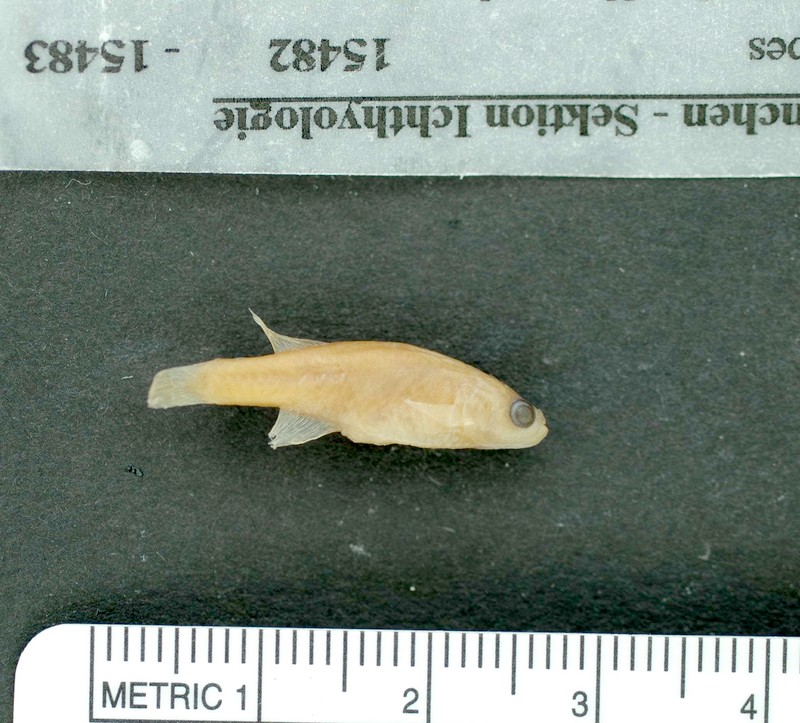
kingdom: Animalia
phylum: Chordata
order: Cyprinodontiformes
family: Rivulidae
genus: Notholebias
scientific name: Notholebias minimus
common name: Minute pearlfish
